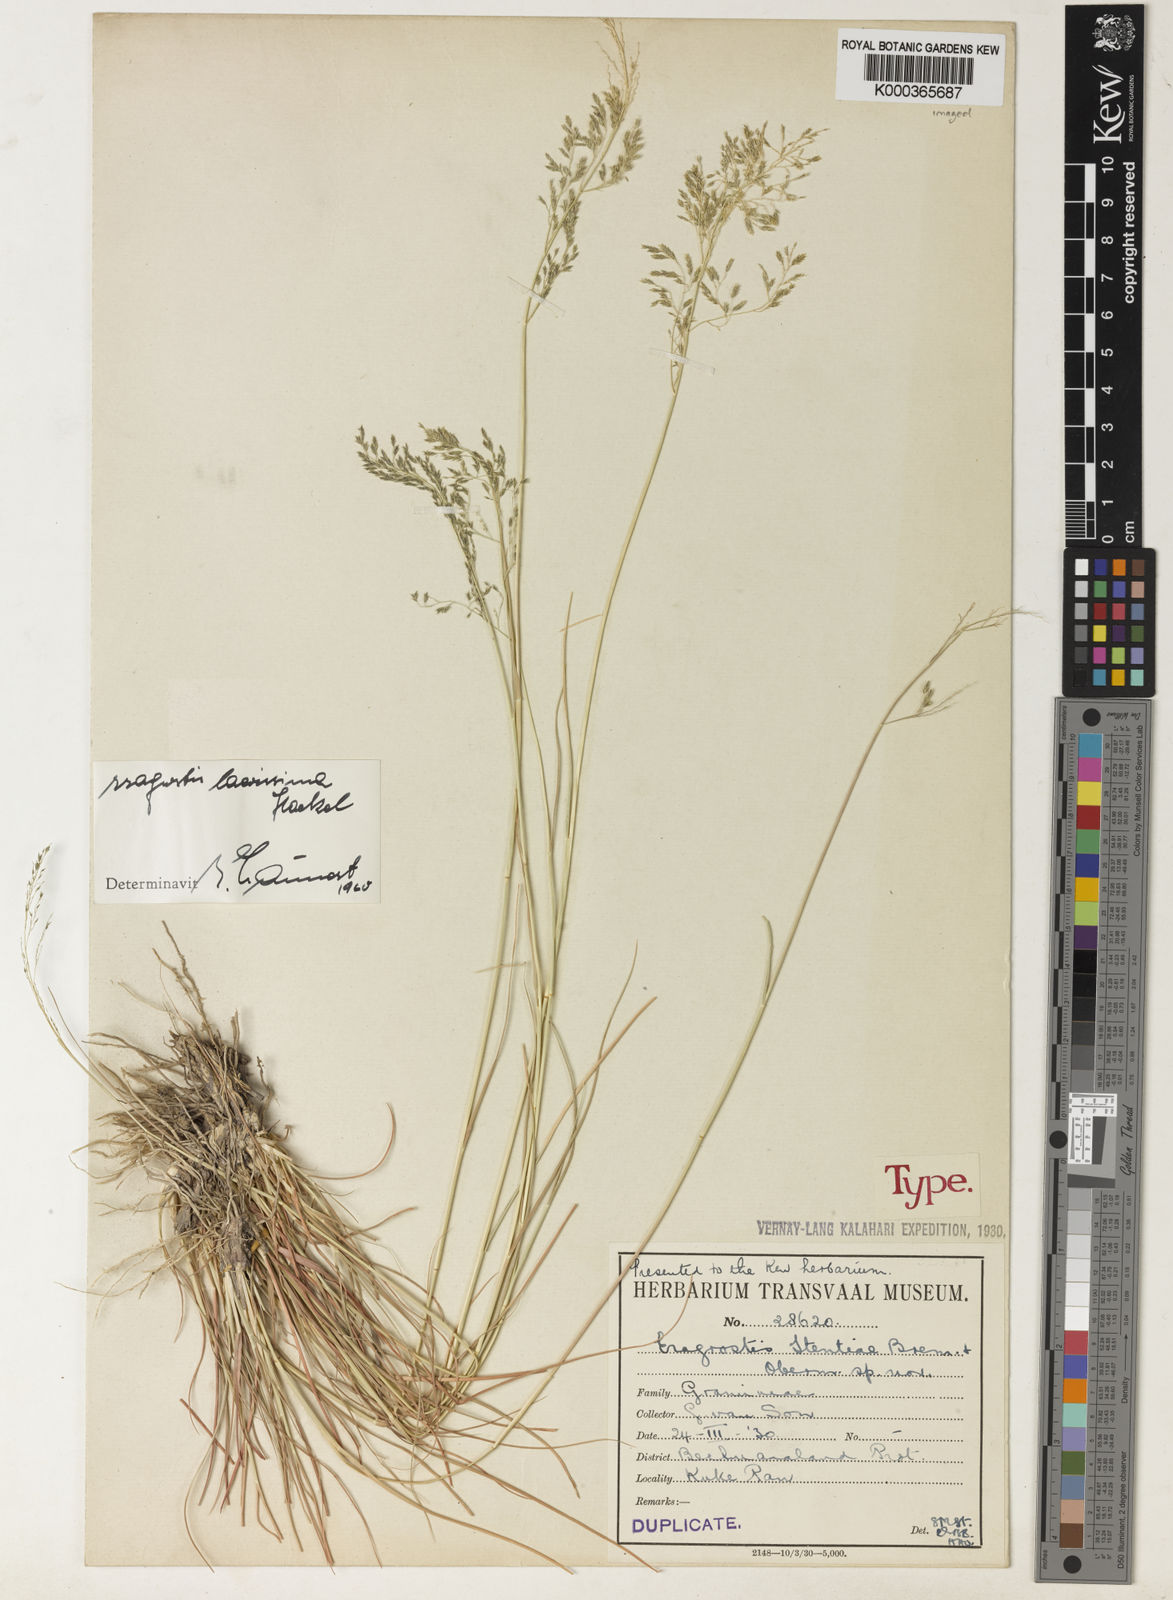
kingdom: Plantae
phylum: Tracheophyta
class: Liliopsida
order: Poales
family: Poaceae
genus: Eragrostis
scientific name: Eragrostis laevissima
